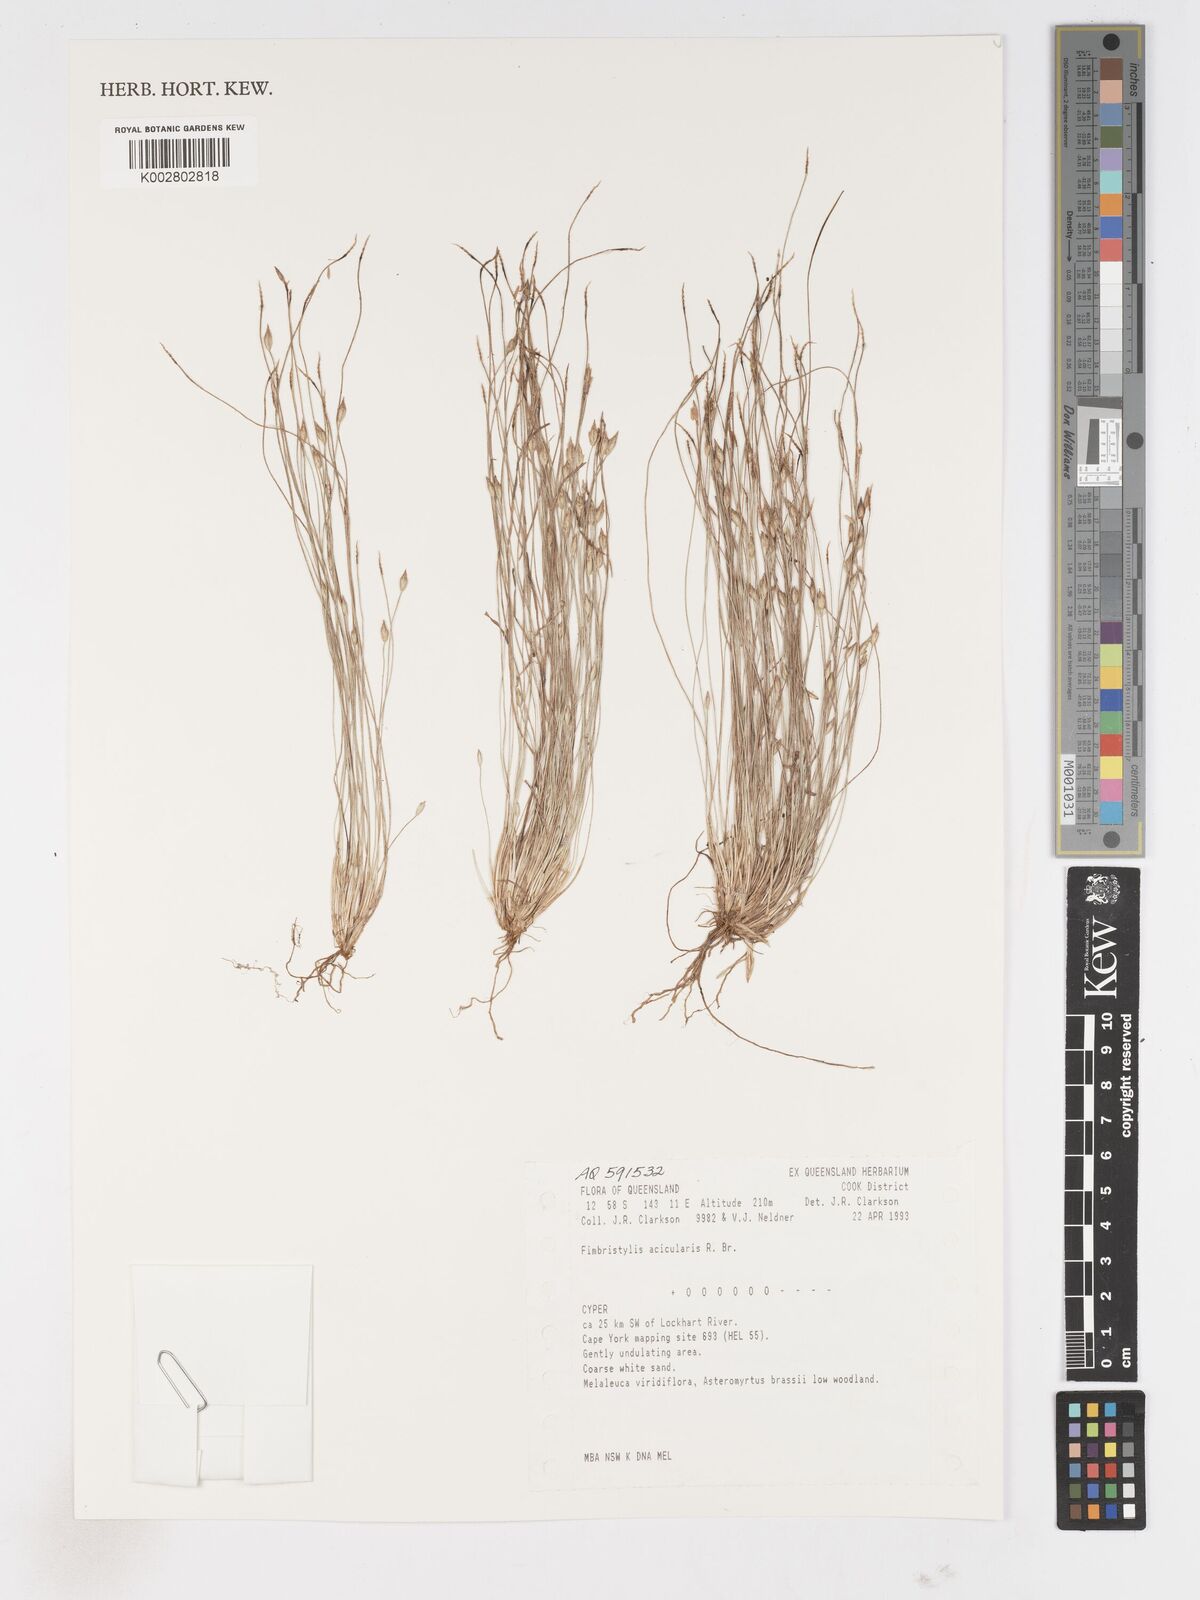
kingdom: Plantae
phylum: Tracheophyta
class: Liliopsida
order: Poales
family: Cyperaceae
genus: Fimbristylis
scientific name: Fimbristylis acicularis
